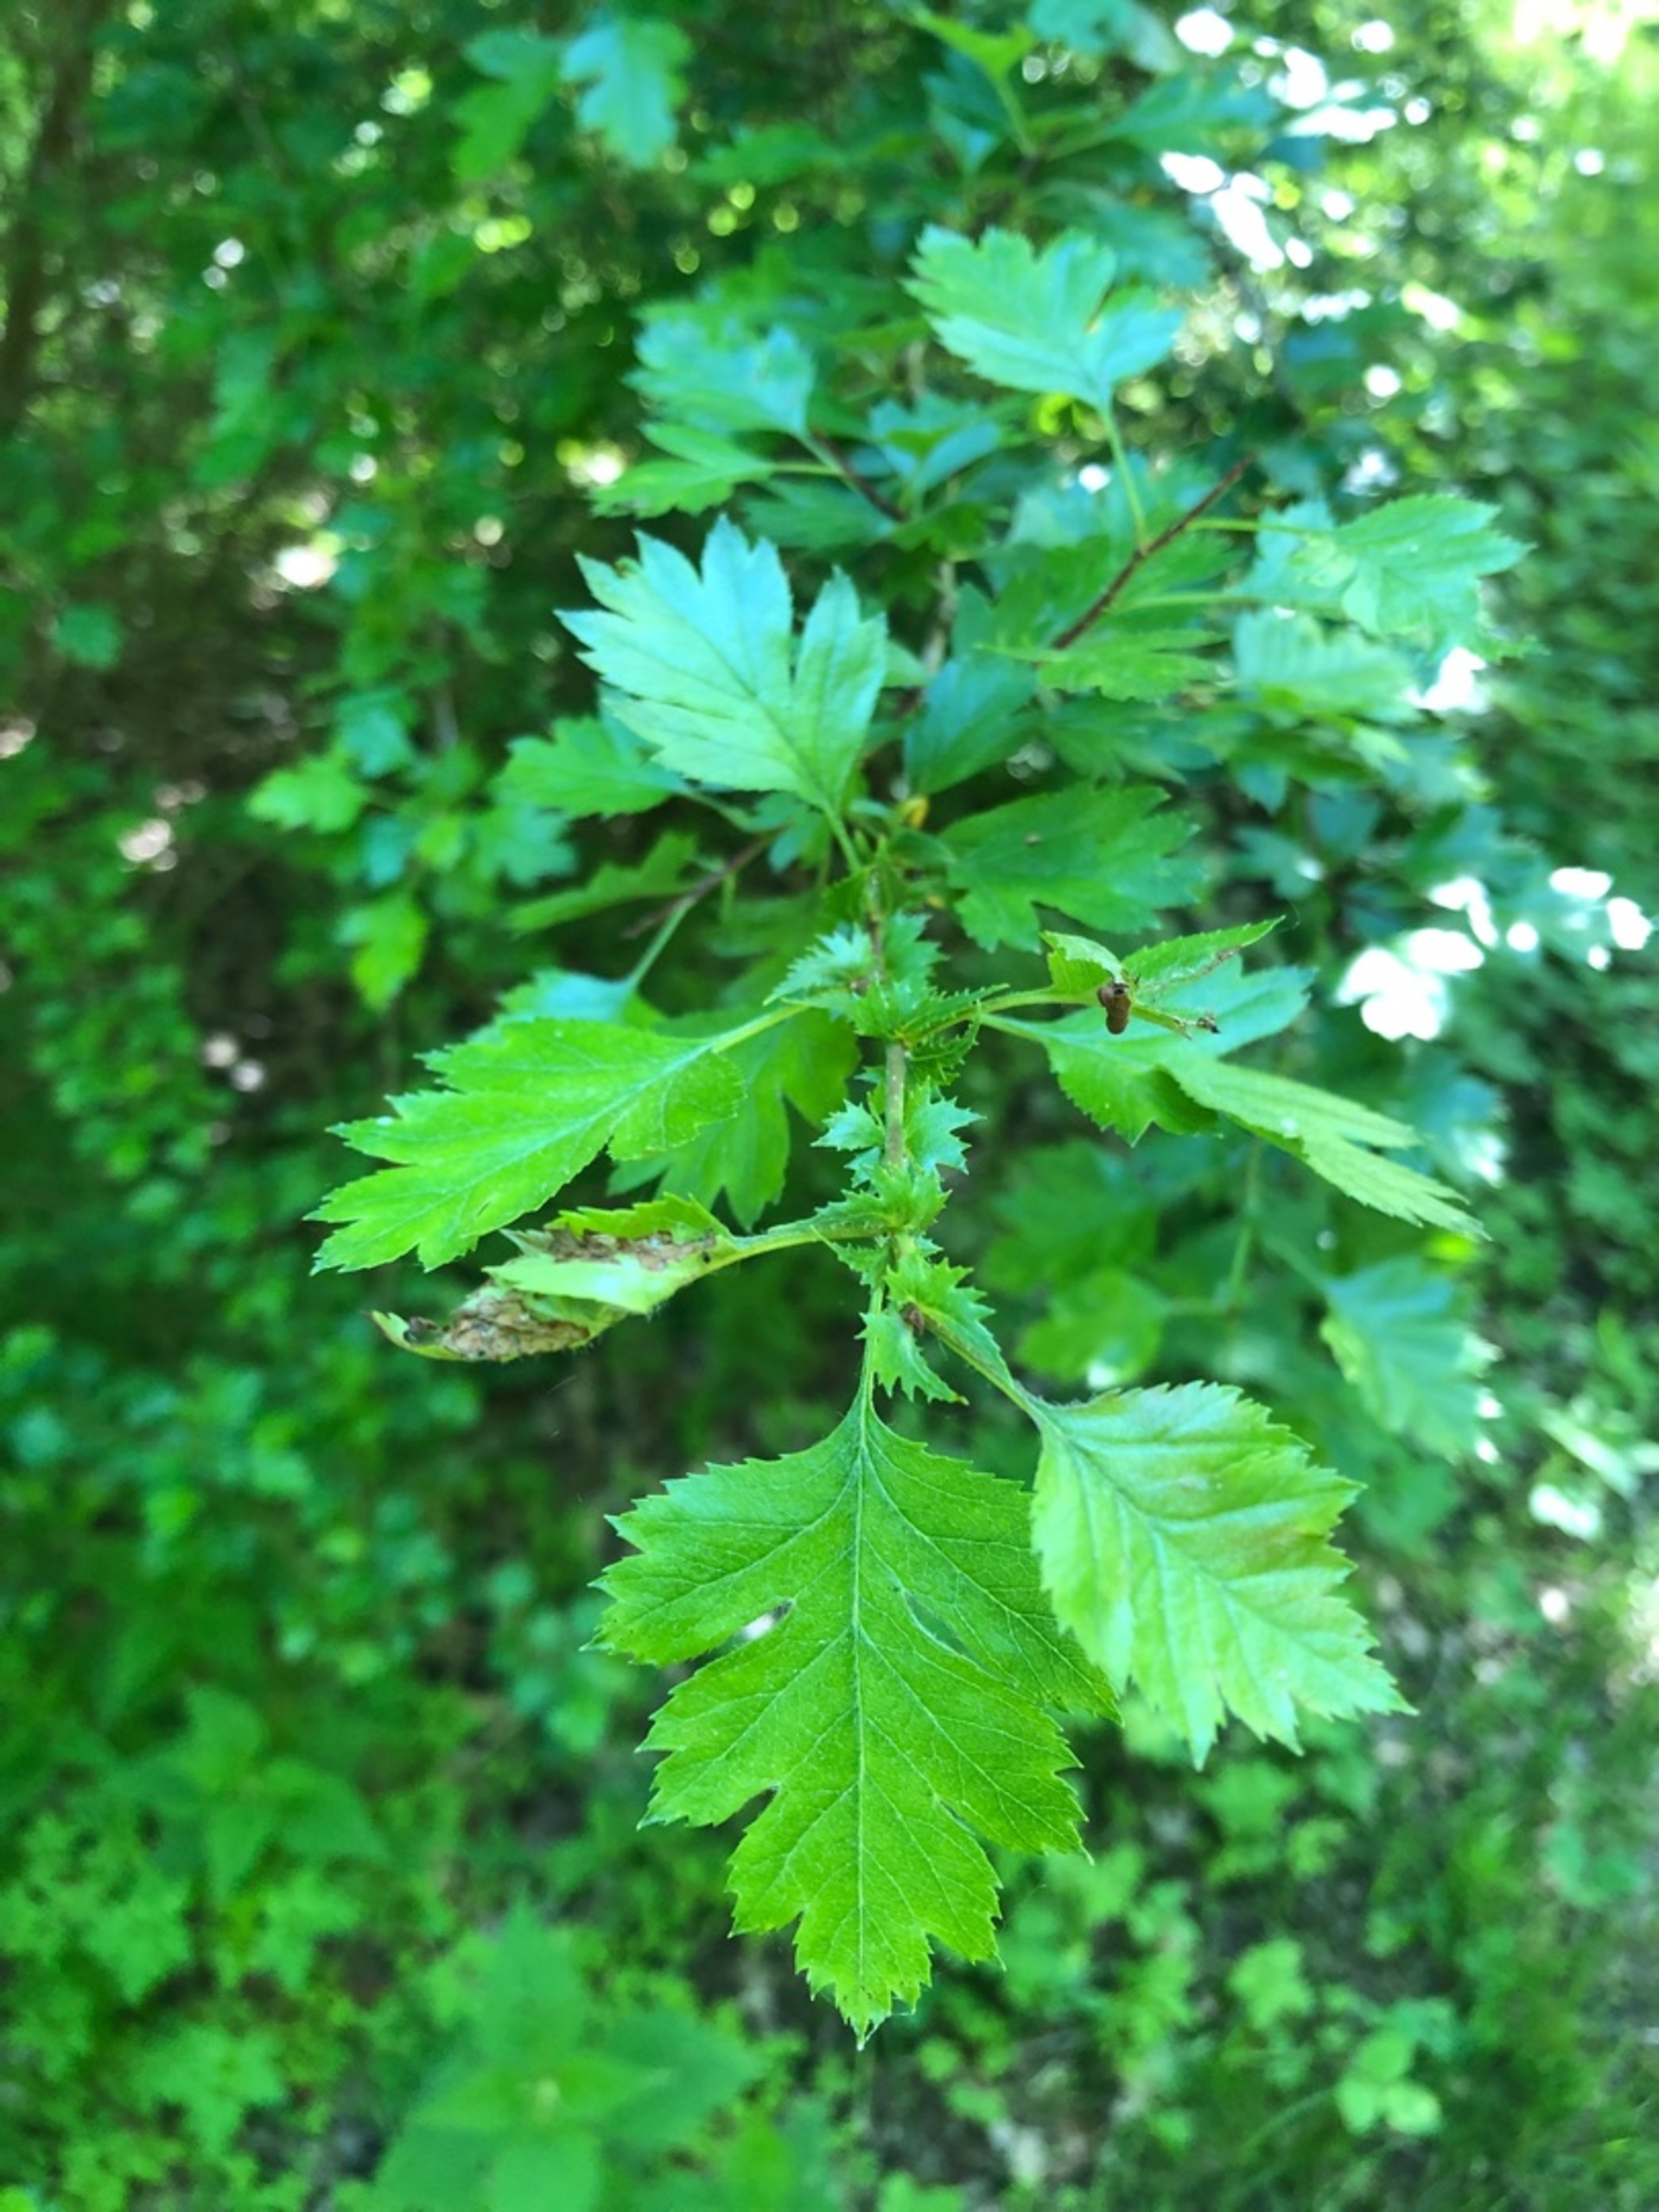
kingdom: Plantae
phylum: Tracheophyta
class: Magnoliopsida
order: Rosales
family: Rosaceae
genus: Crataegus
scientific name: Crataegus rhipidophylla
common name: Koral-hvidtjørn
